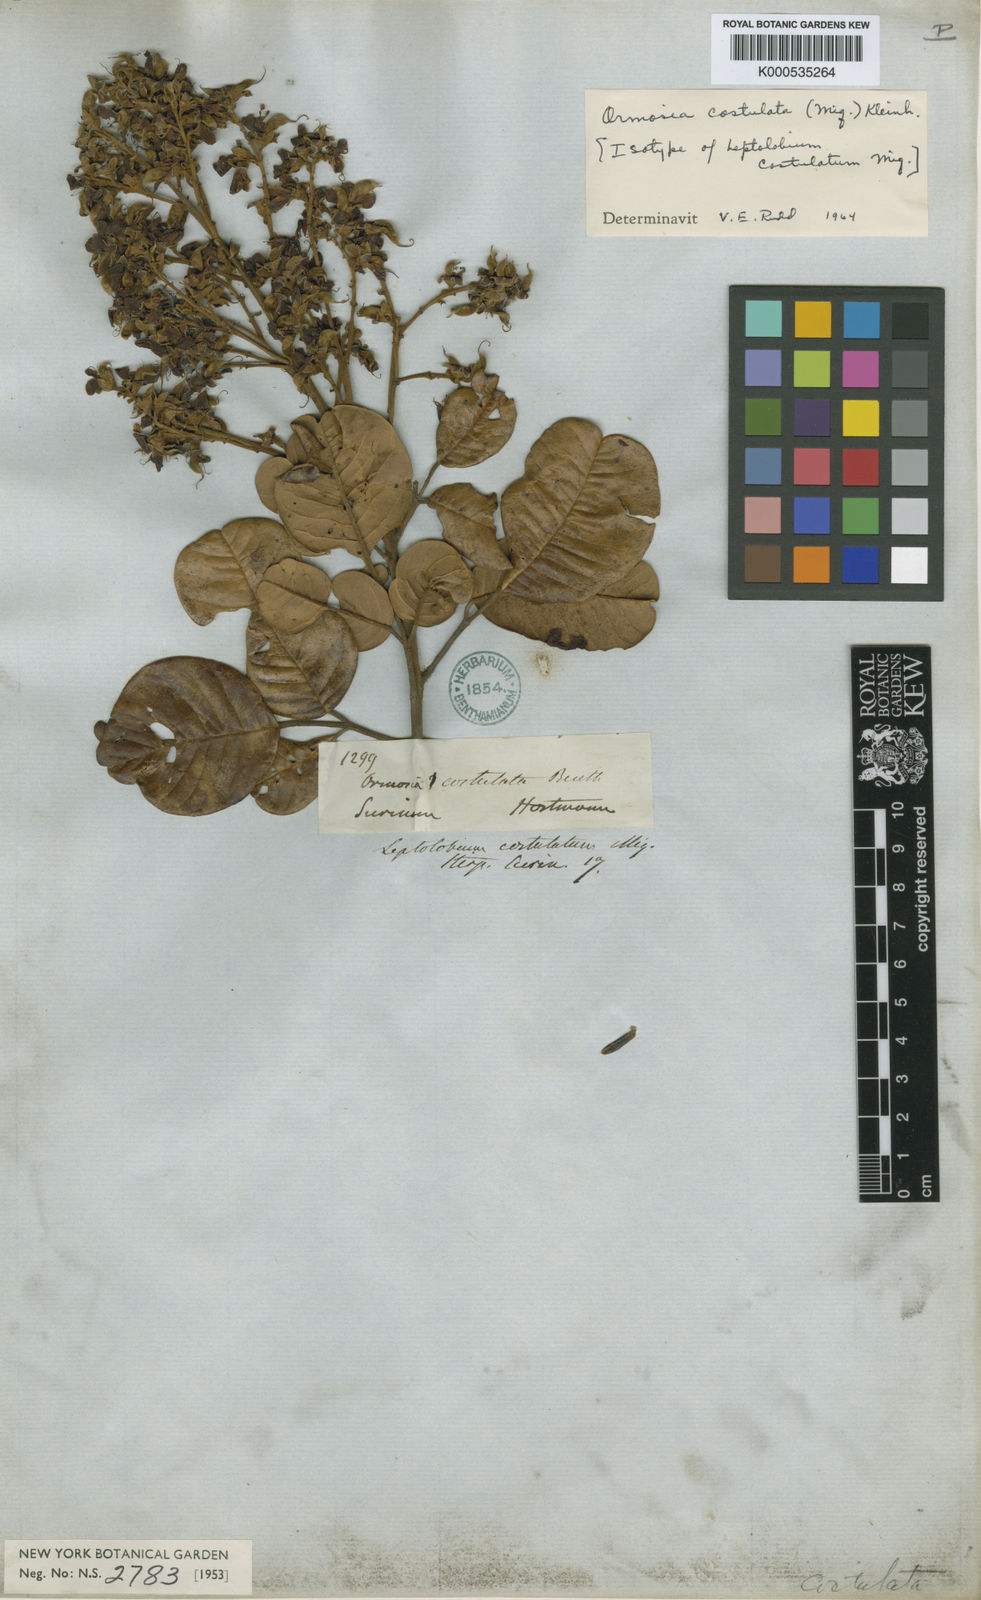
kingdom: Plantae
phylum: Tracheophyta
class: Magnoliopsida
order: Fabales
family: Fabaceae
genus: Ormosia
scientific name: Ormosia costulata
